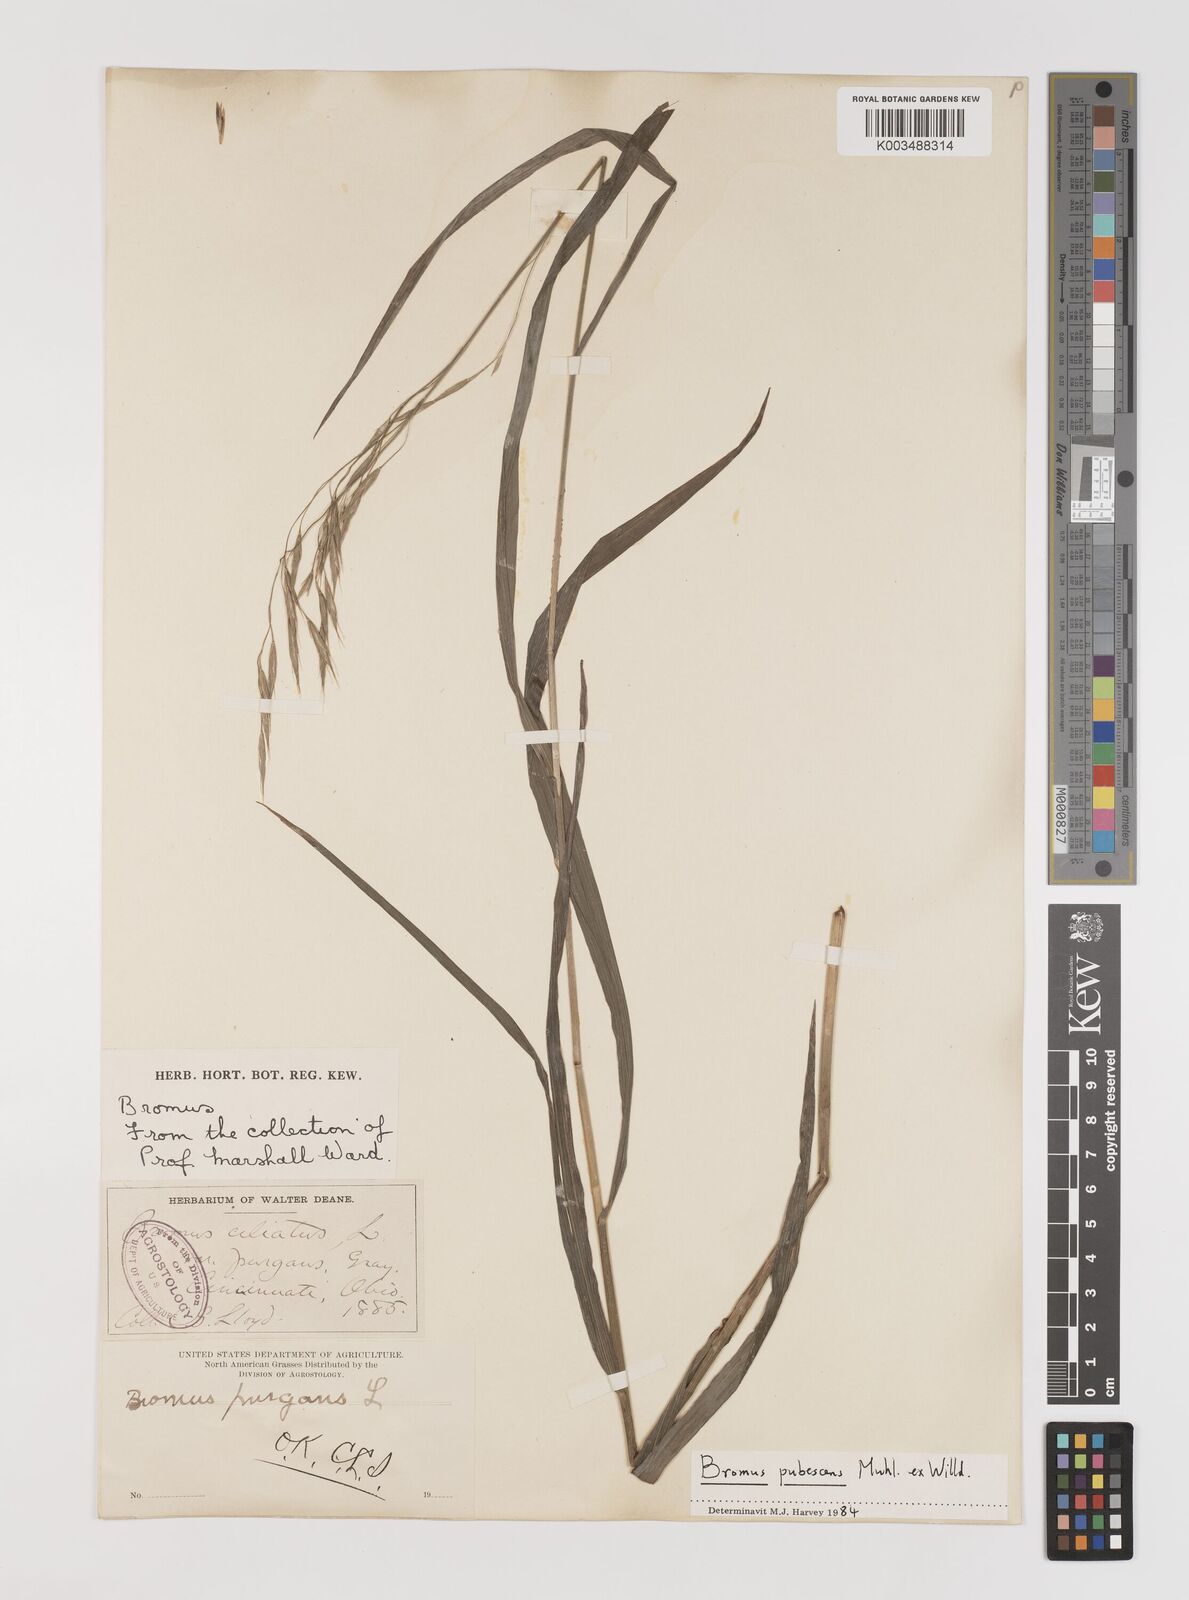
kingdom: Plantae
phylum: Tracheophyta
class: Liliopsida
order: Poales
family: Poaceae
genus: Bromus
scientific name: Bromus pubescens
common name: Hairy wood brome grass
